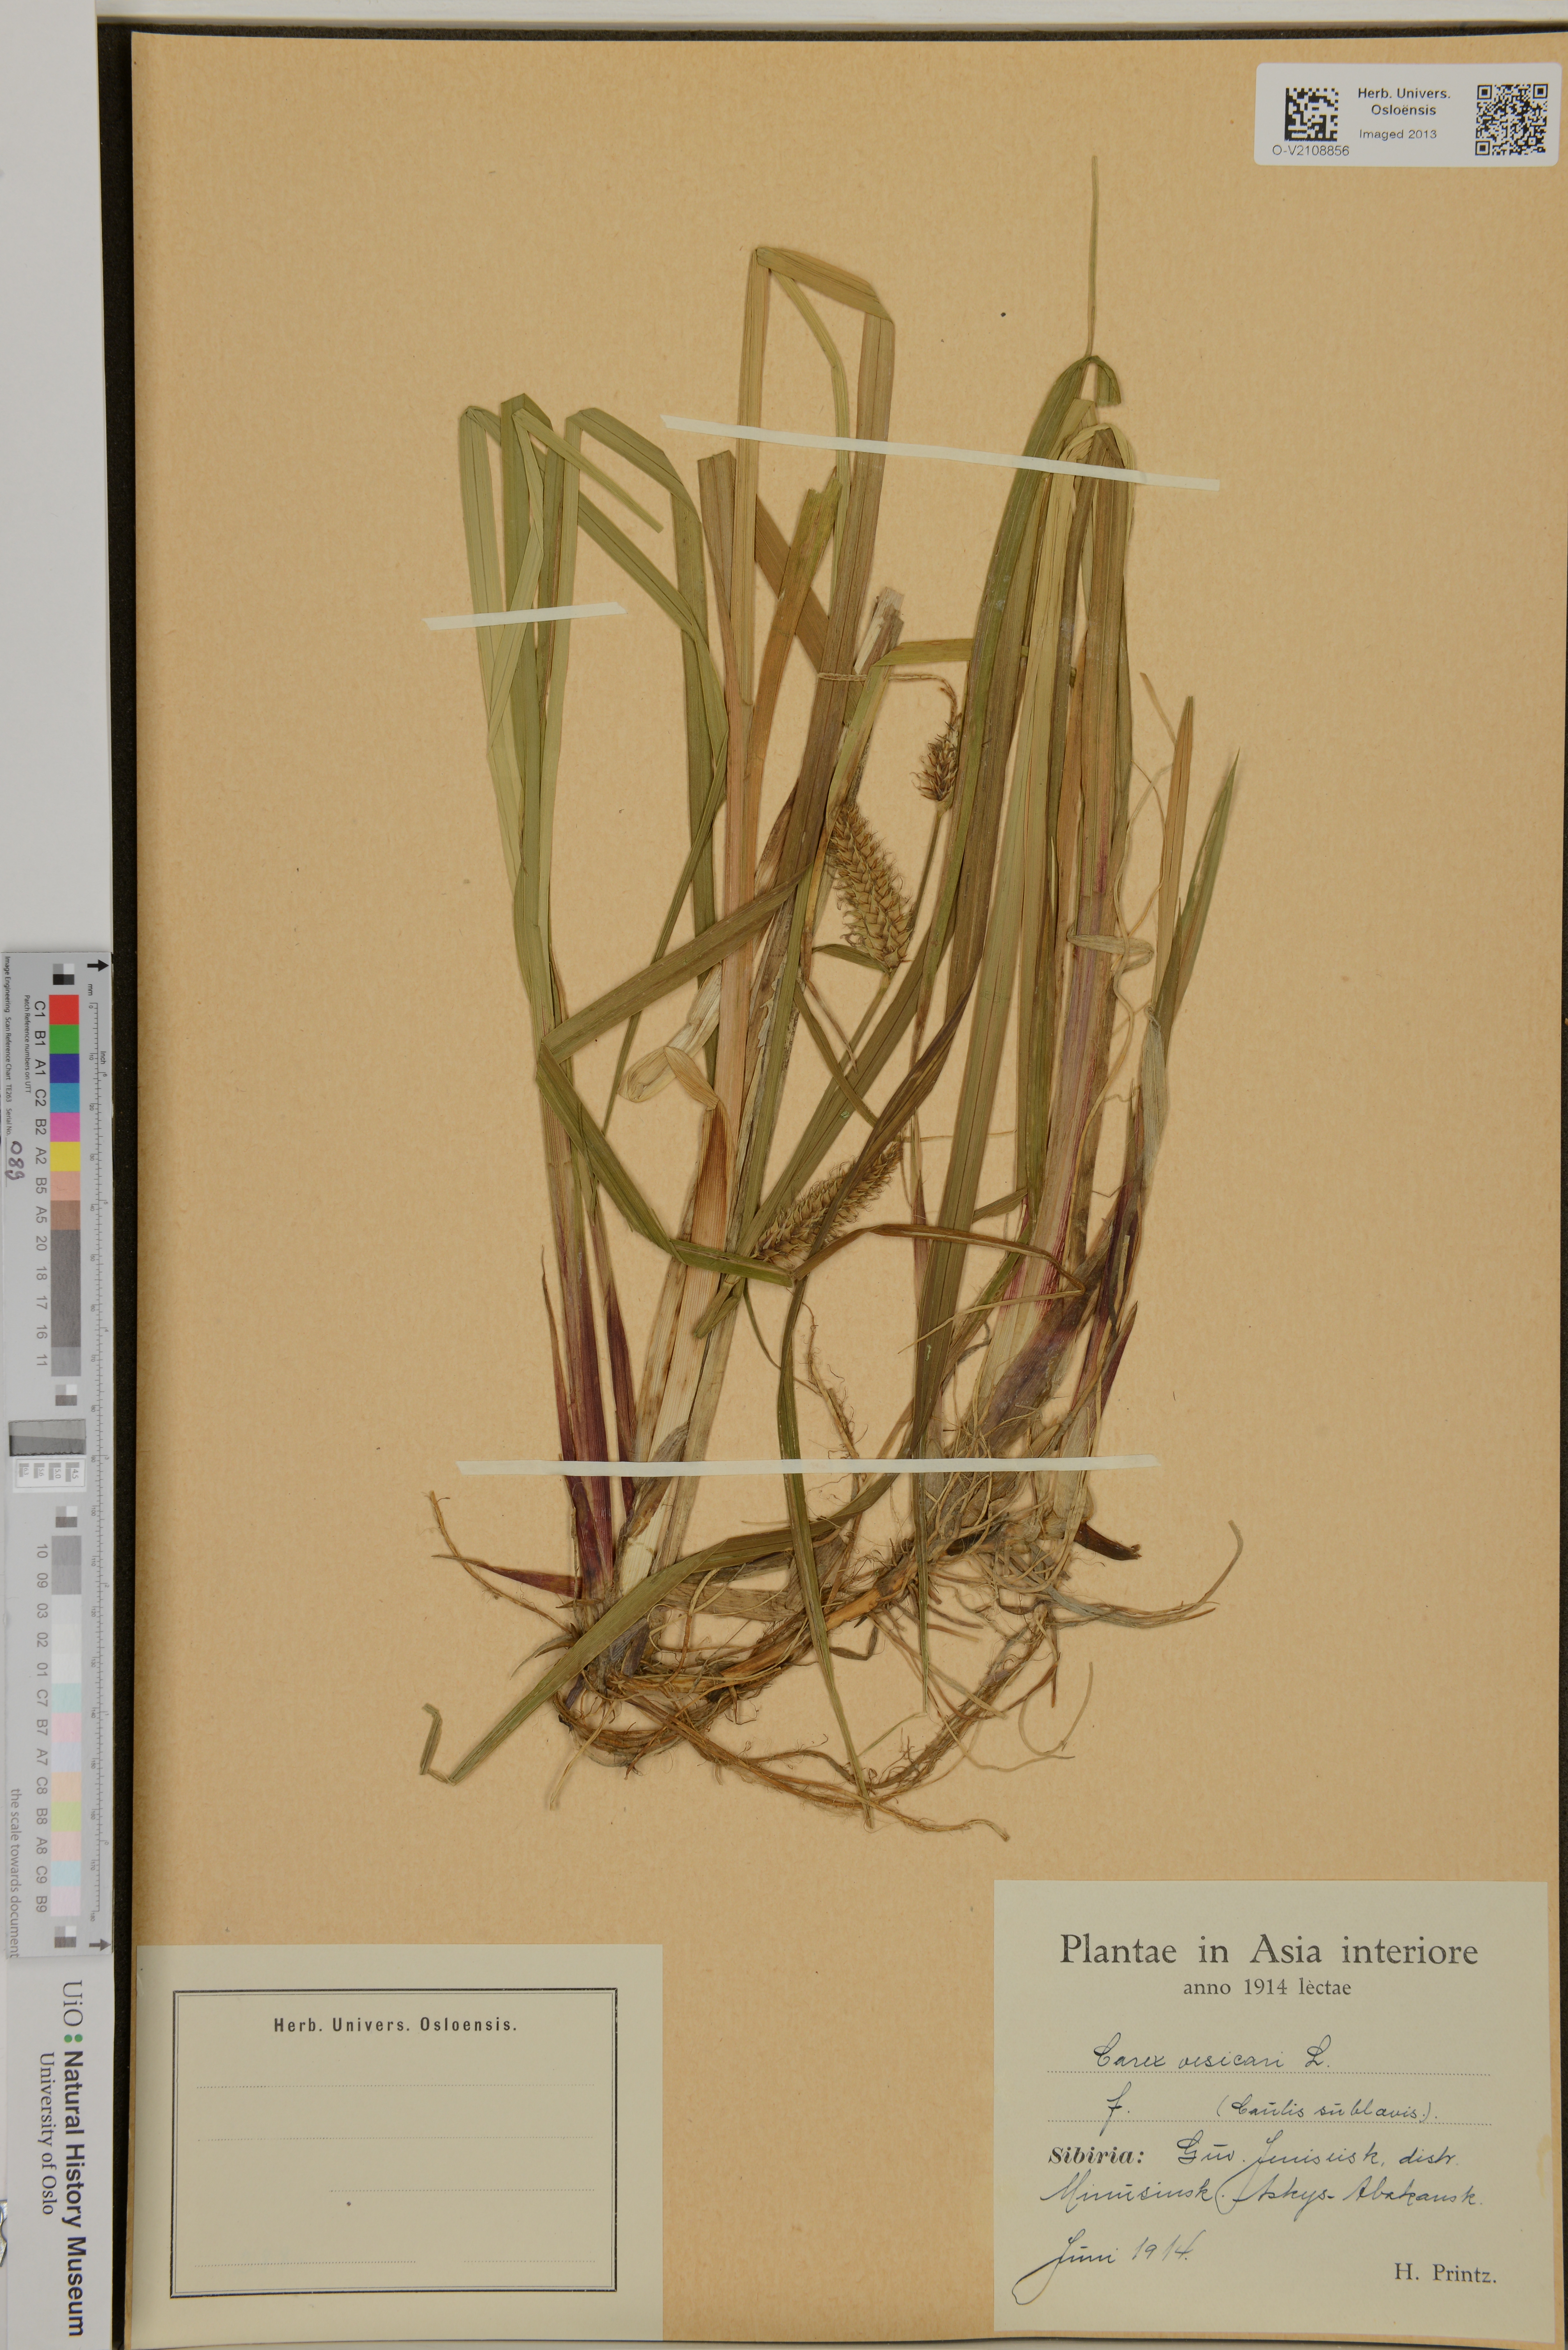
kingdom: Plantae
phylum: Tracheophyta
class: Liliopsida
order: Poales
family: Cyperaceae
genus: Carex
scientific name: Carex vesicaria
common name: Bladder-sedge
